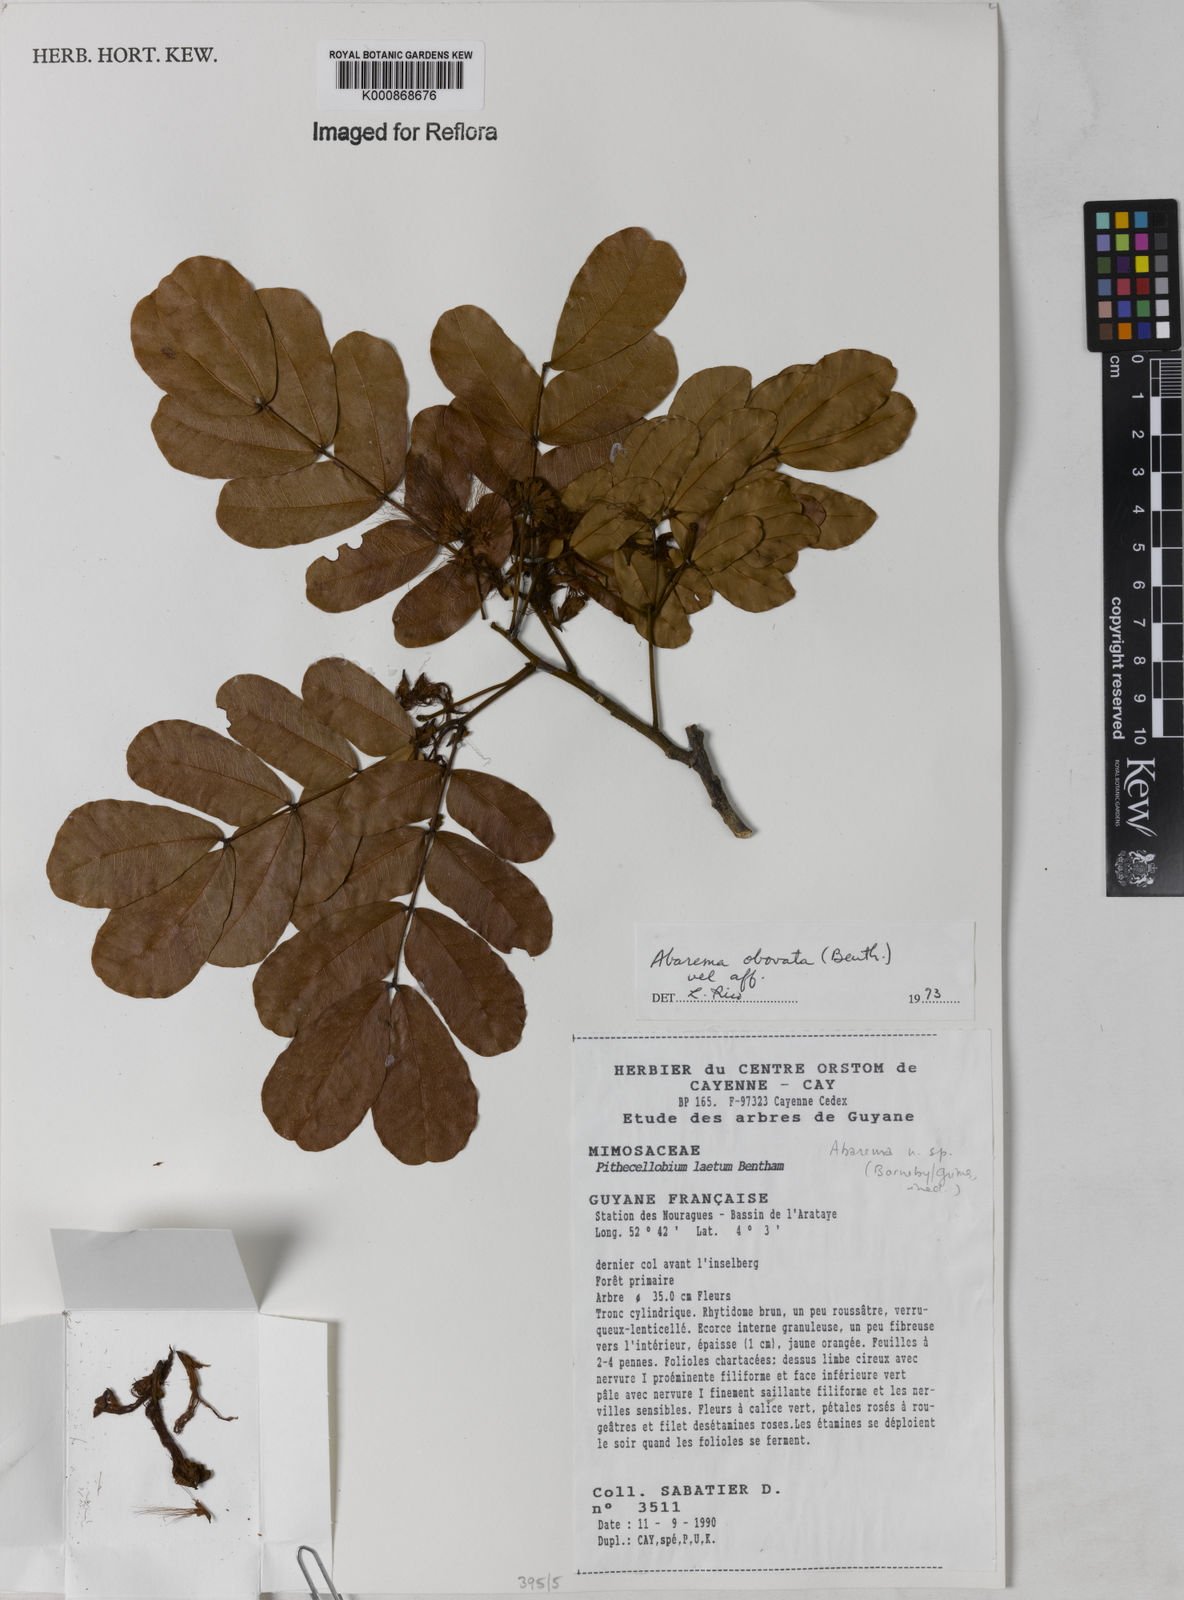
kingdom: Plantae
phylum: Tracheophyta
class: Magnoliopsida
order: Fabales
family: Fabaceae
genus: Abarema
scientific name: Abarema
